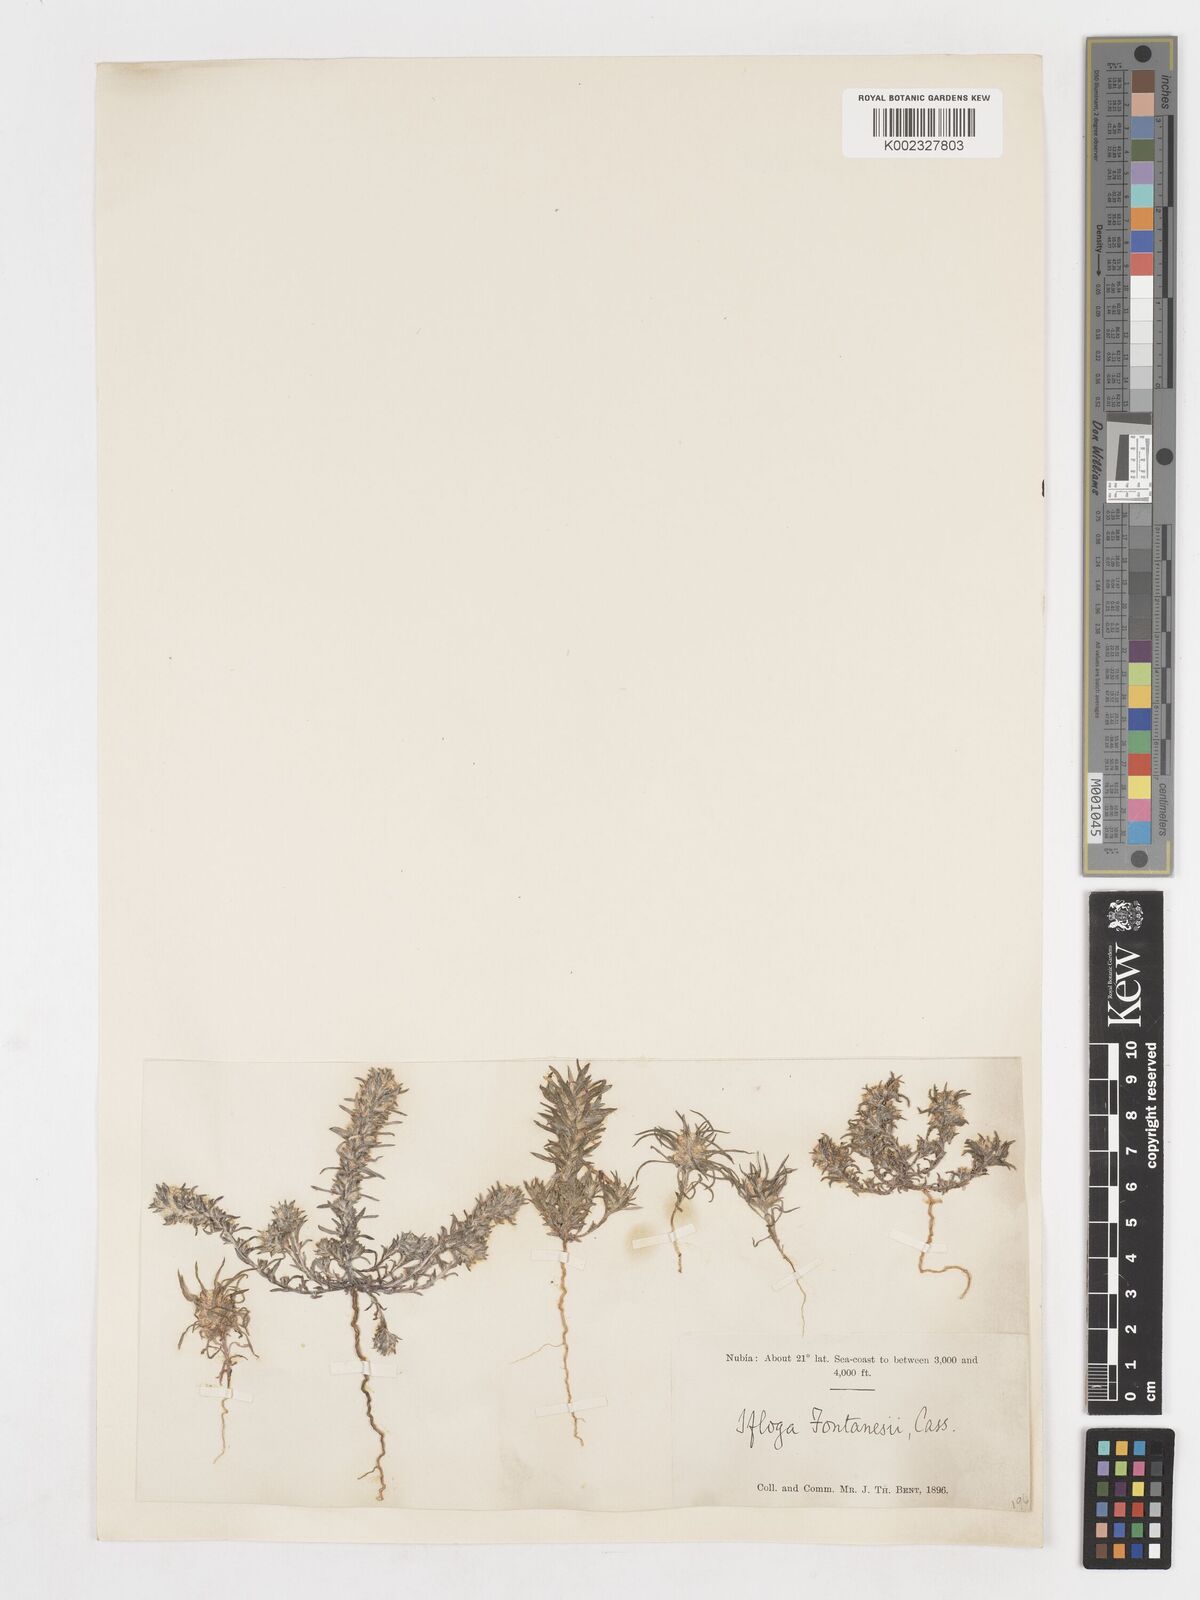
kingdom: Plantae
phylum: Tracheophyta
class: Magnoliopsida
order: Asterales
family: Asteraceae
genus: Ifloga
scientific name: Ifloga spicata
